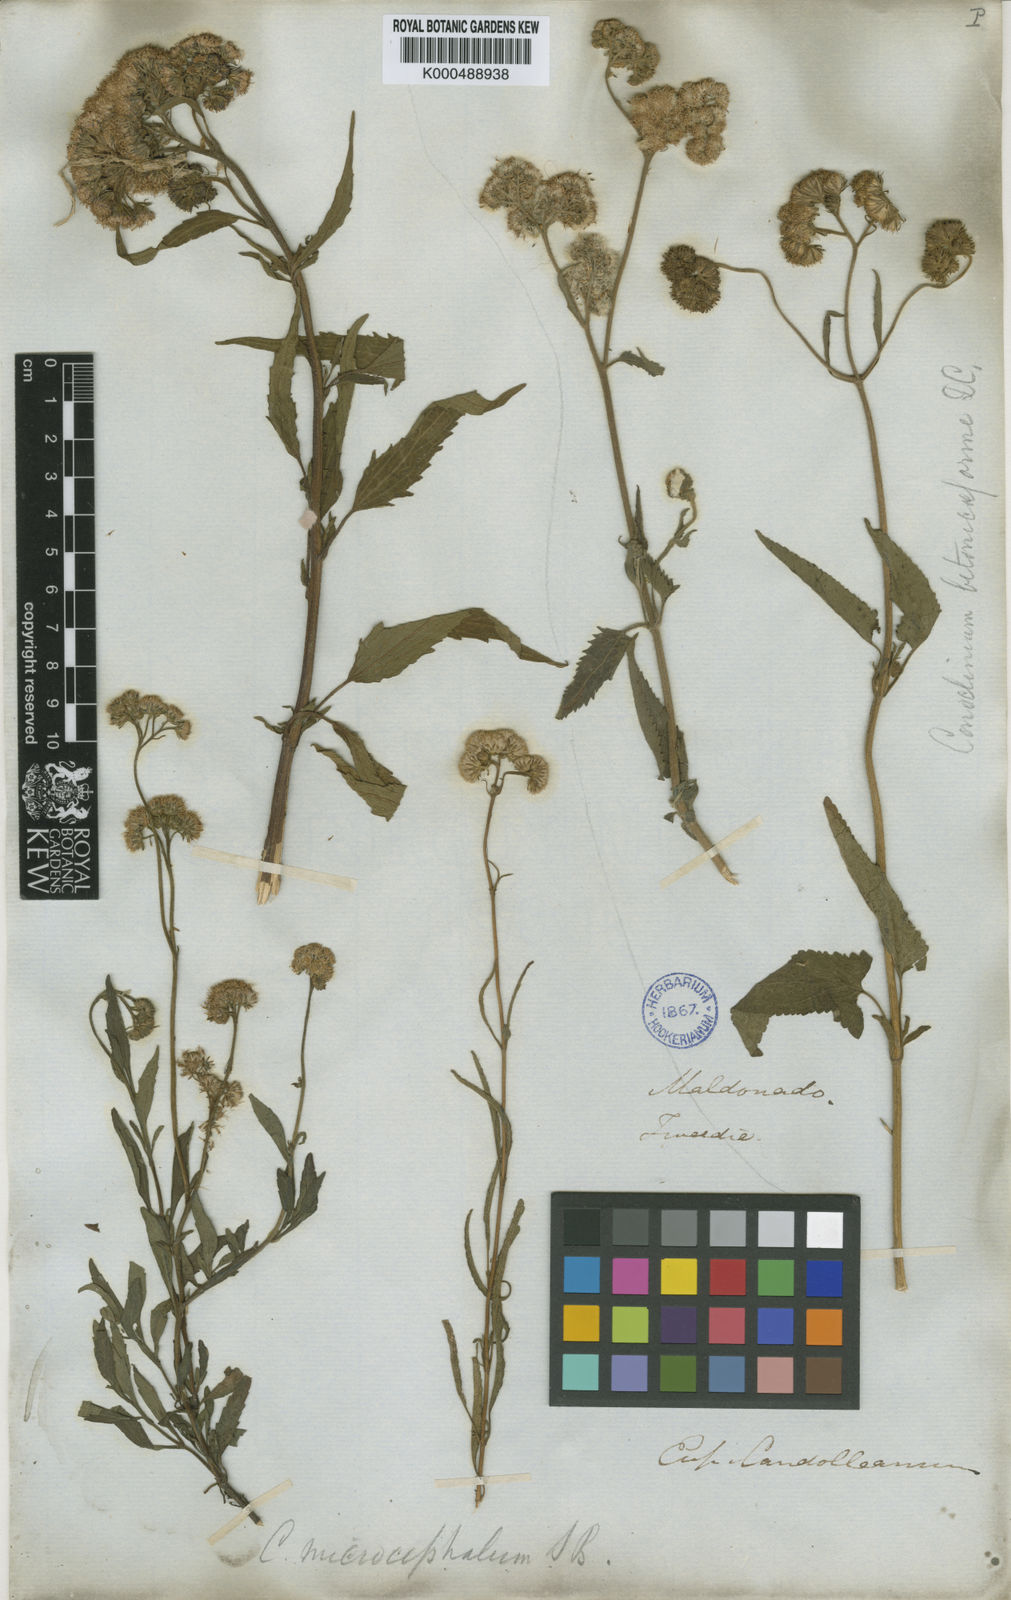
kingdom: Plantae
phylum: Tracheophyta
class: Magnoliopsida
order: Asterales
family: Asteraceae
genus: Barrosoa
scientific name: Barrosoa candolleana
